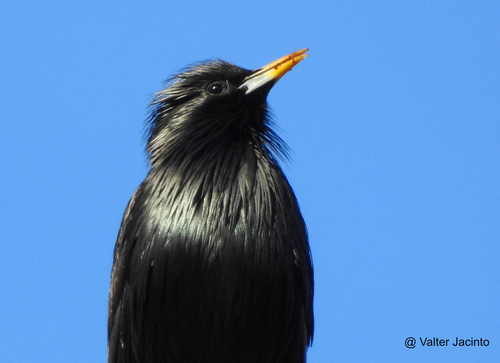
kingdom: Animalia
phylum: Chordata
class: Aves
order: Passeriformes
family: Sturnidae
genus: Sturnus
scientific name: Sturnus unicolor
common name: Spotless starling
